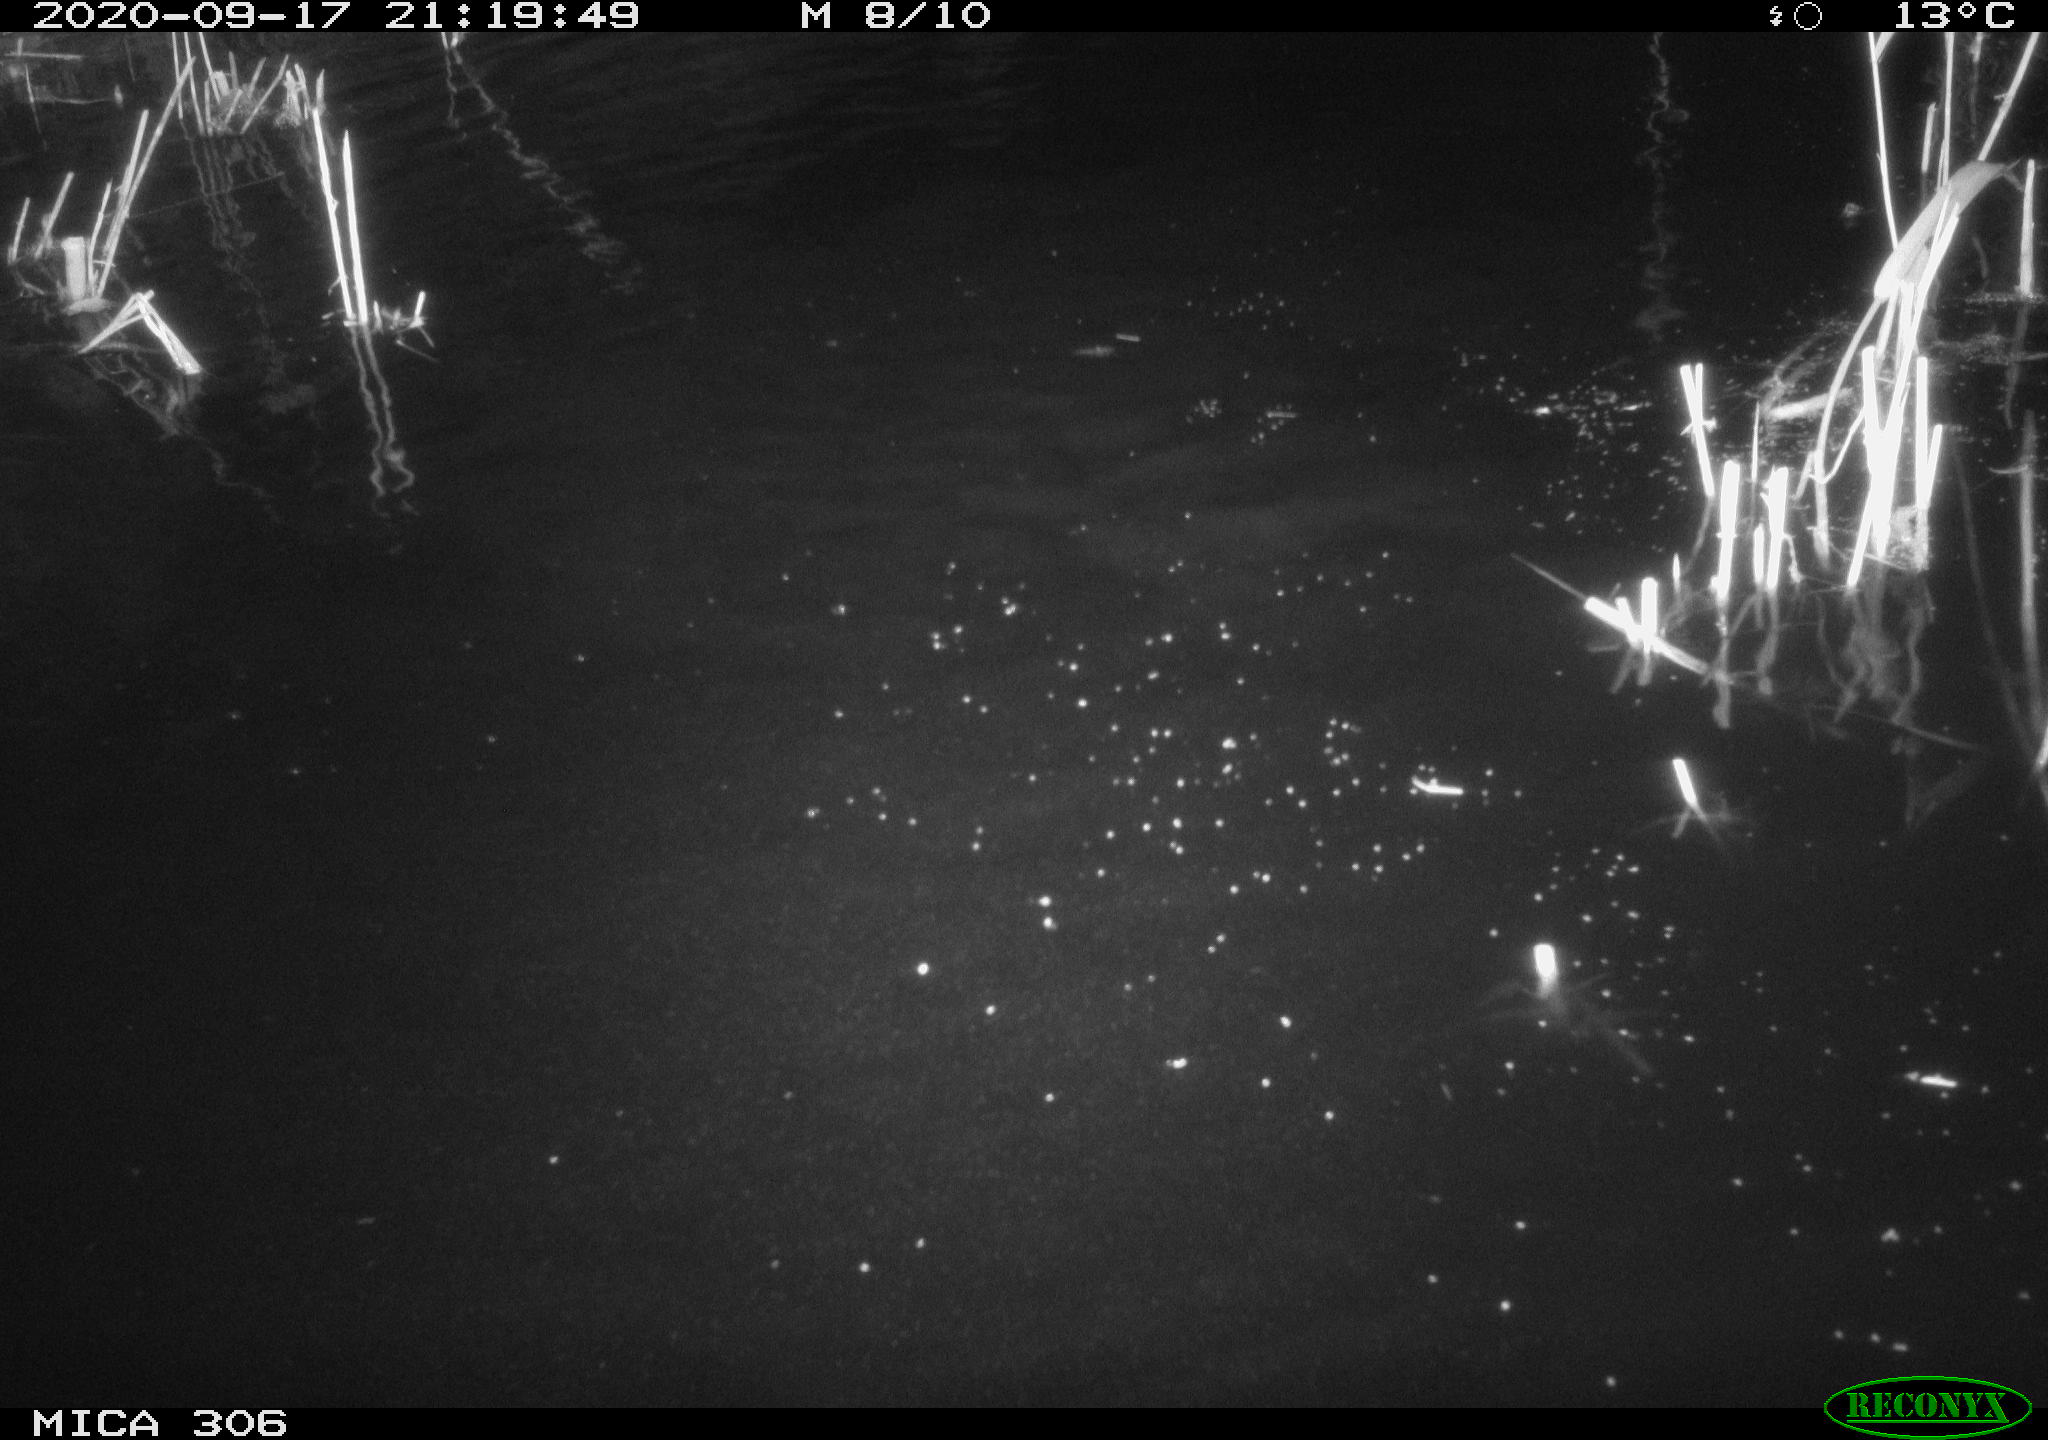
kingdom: Animalia
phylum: Chordata
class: Mammalia
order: Rodentia
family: Muridae
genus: Rattus
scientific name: Rattus norvegicus
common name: Brown rat
